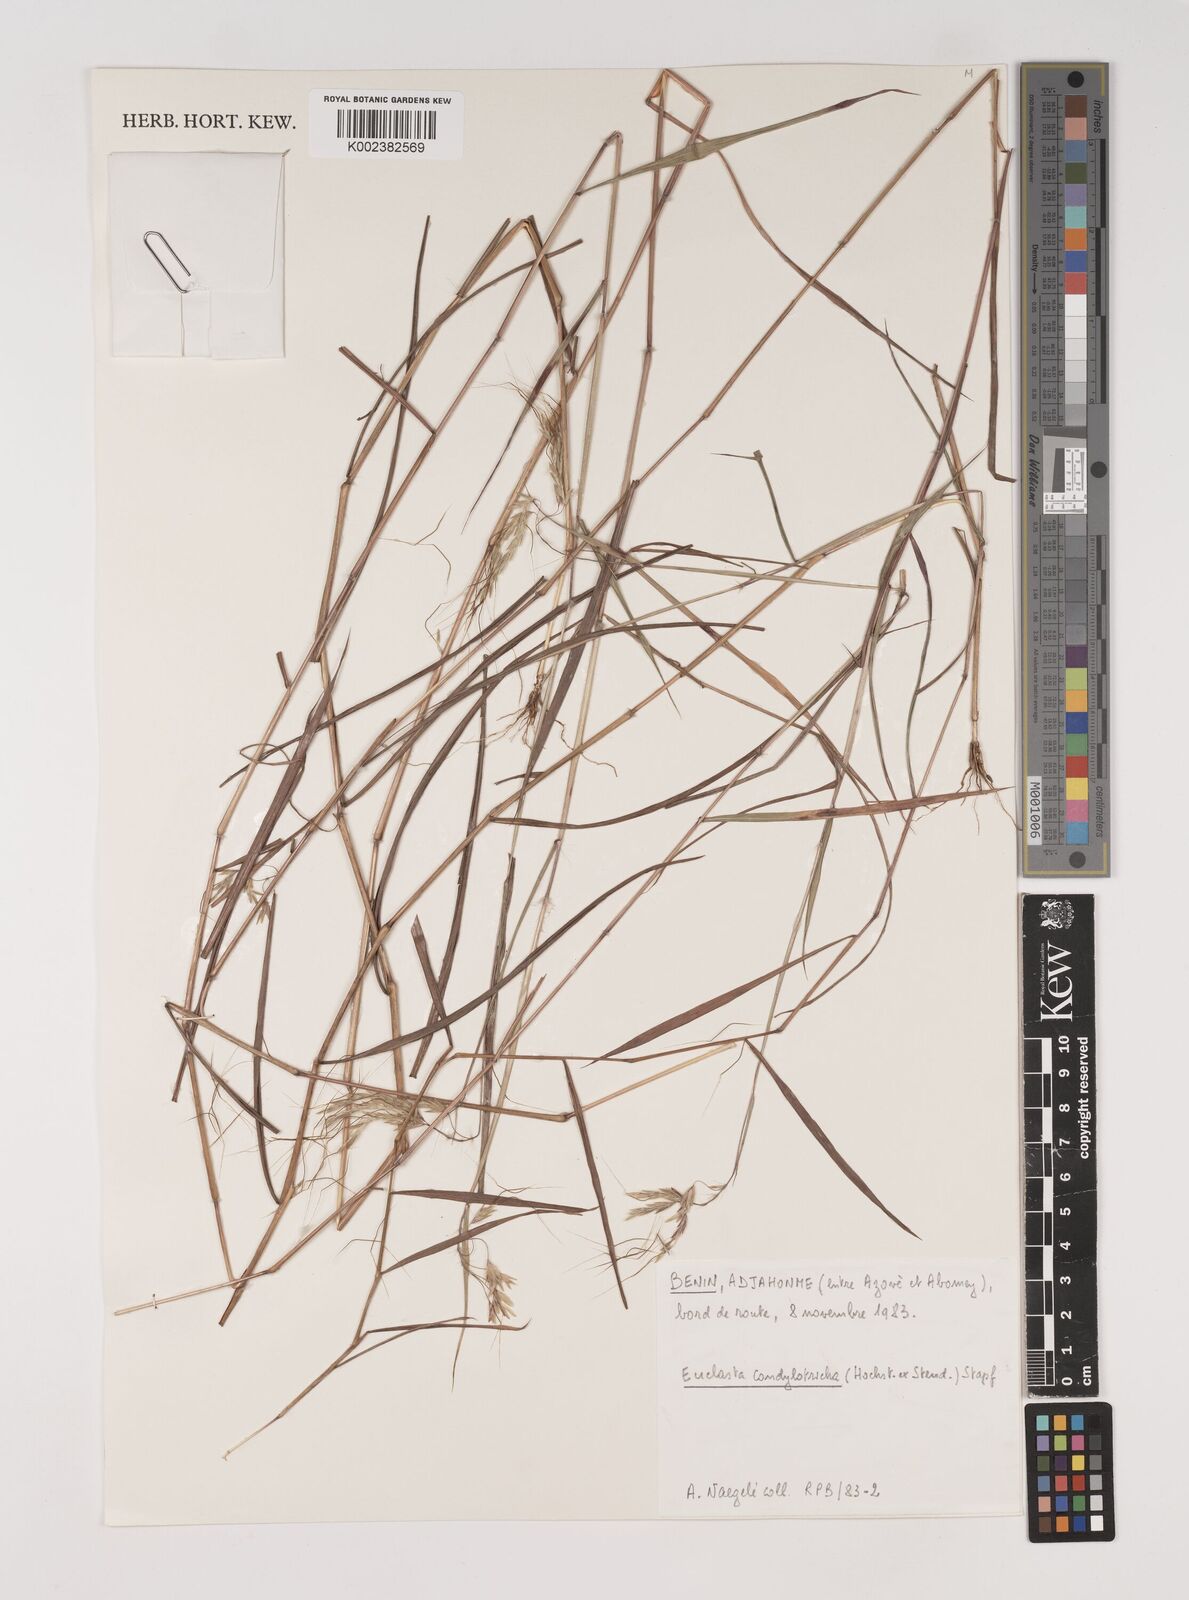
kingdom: Plantae
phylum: Tracheophyta
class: Liliopsida
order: Poales
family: Poaceae
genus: Euclasta
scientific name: Euclasta condylotricha
